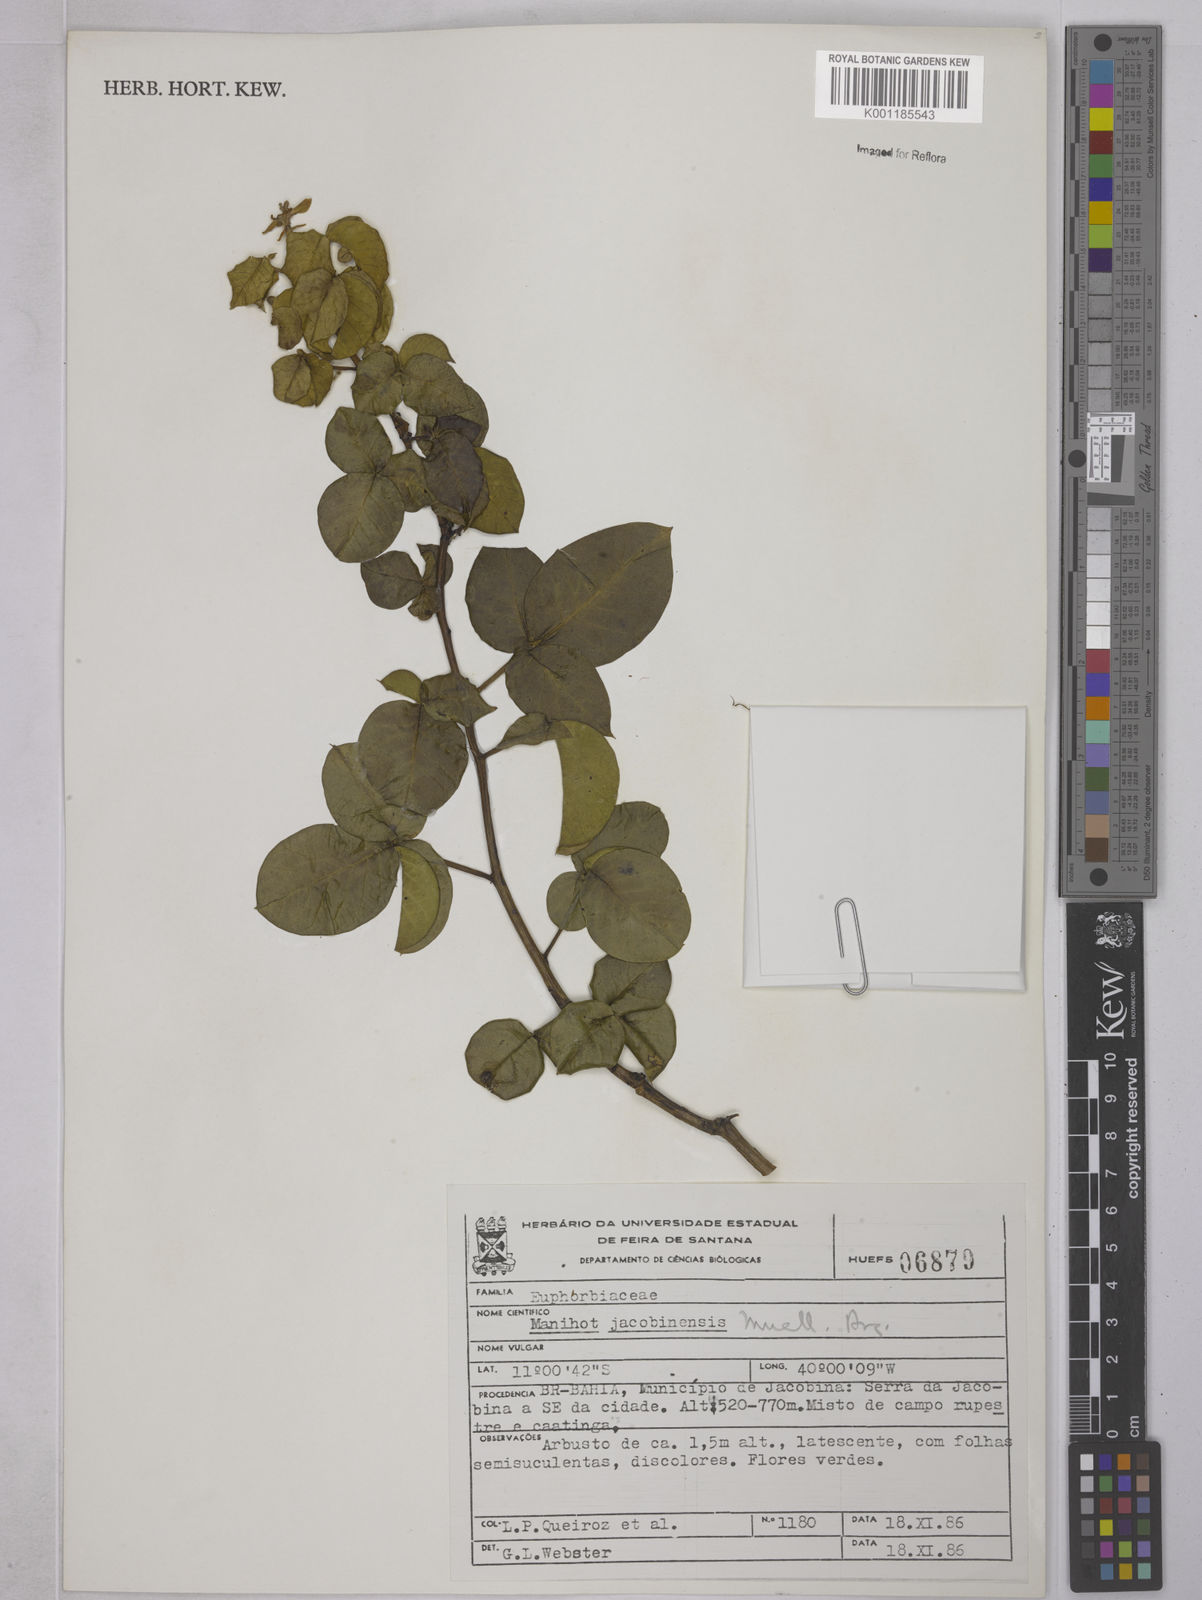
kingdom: Plantae
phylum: Tracheophyta
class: Magnoliopsida
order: Malpighiales
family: Euphorbiaceae
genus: Manihot
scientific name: Manihot
